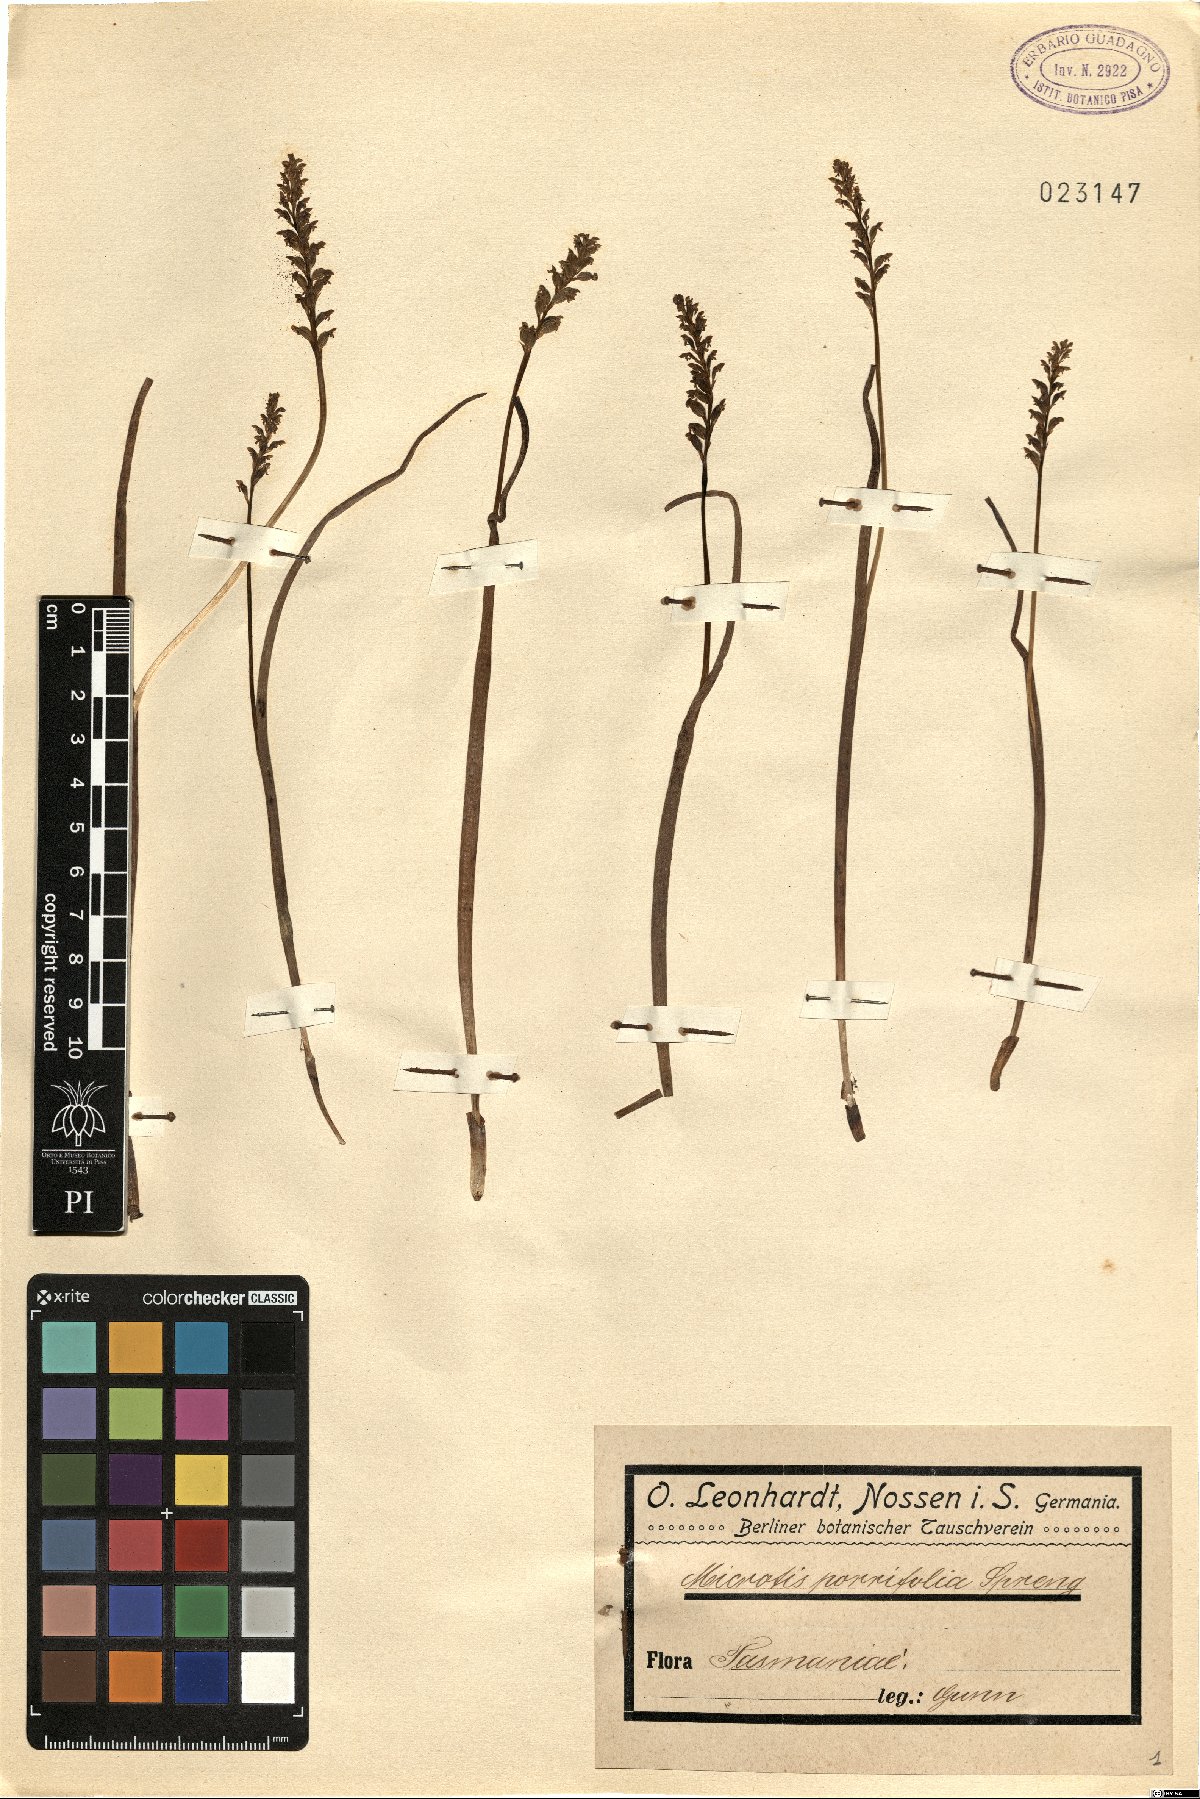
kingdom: Plantae
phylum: Tracheophyta
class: Liliopsida
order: Asparagales
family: Orchidaceae
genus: Microtis
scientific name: Microtis unifolia
